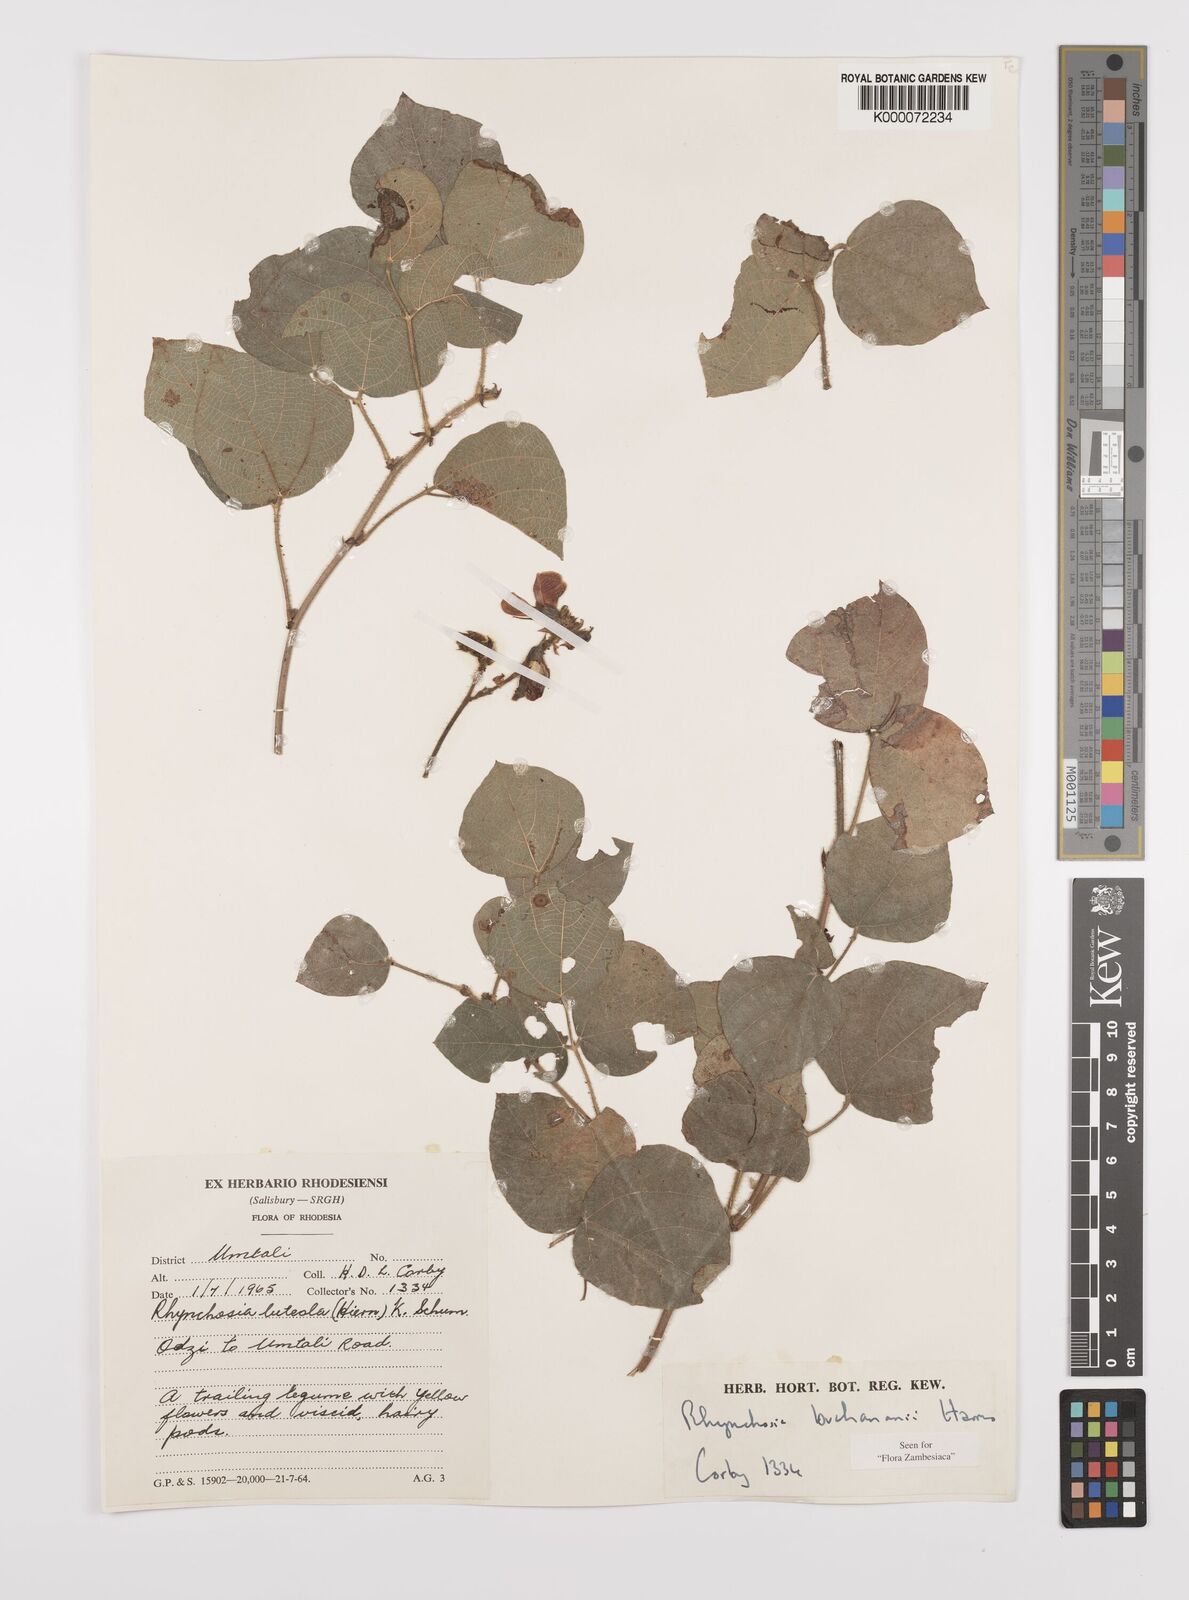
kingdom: Plantae
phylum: Tracheophyta
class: Magnoliopsida
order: Fabales
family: Fabaceae
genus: Rhynchosia
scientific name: Rhynchosia buchananii
